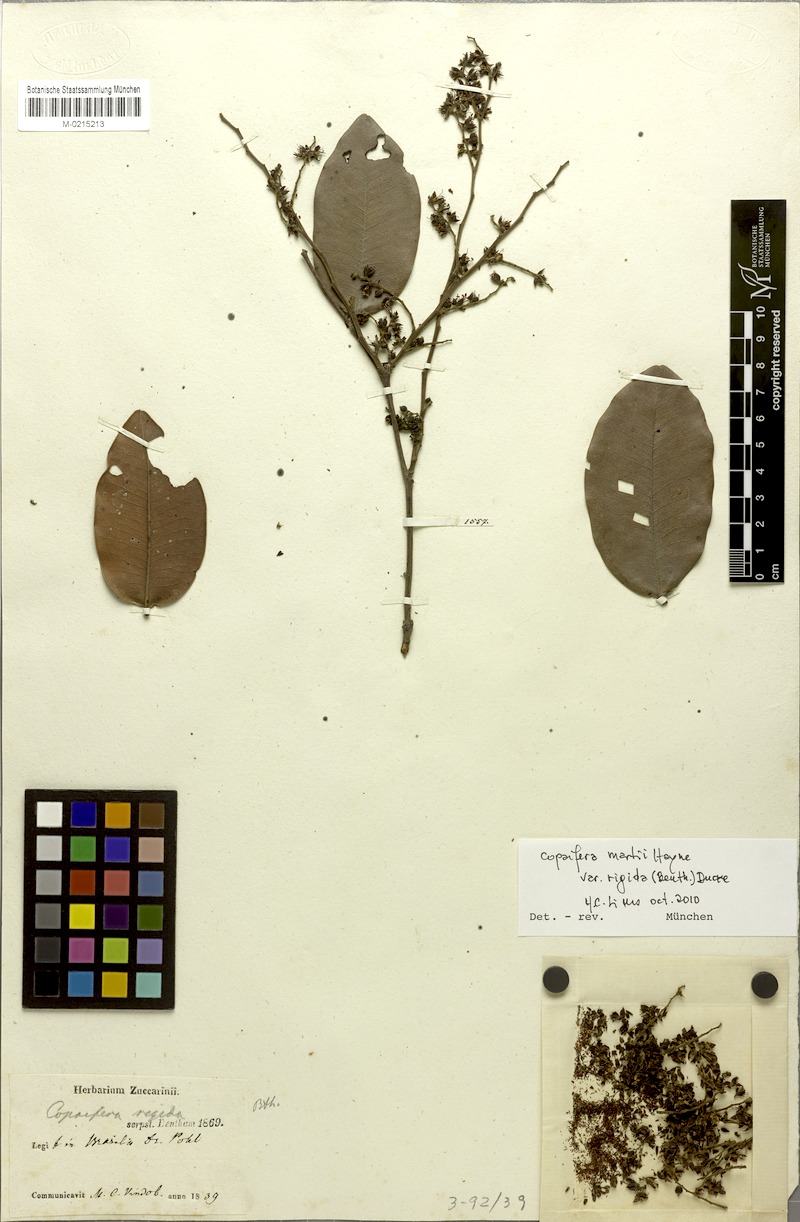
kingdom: Plantae
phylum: Tracheophyta
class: Magnoliopsida
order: Fabales
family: Fabaceae
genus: Copaifera
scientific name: Copaifera martii
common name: Copaiba
